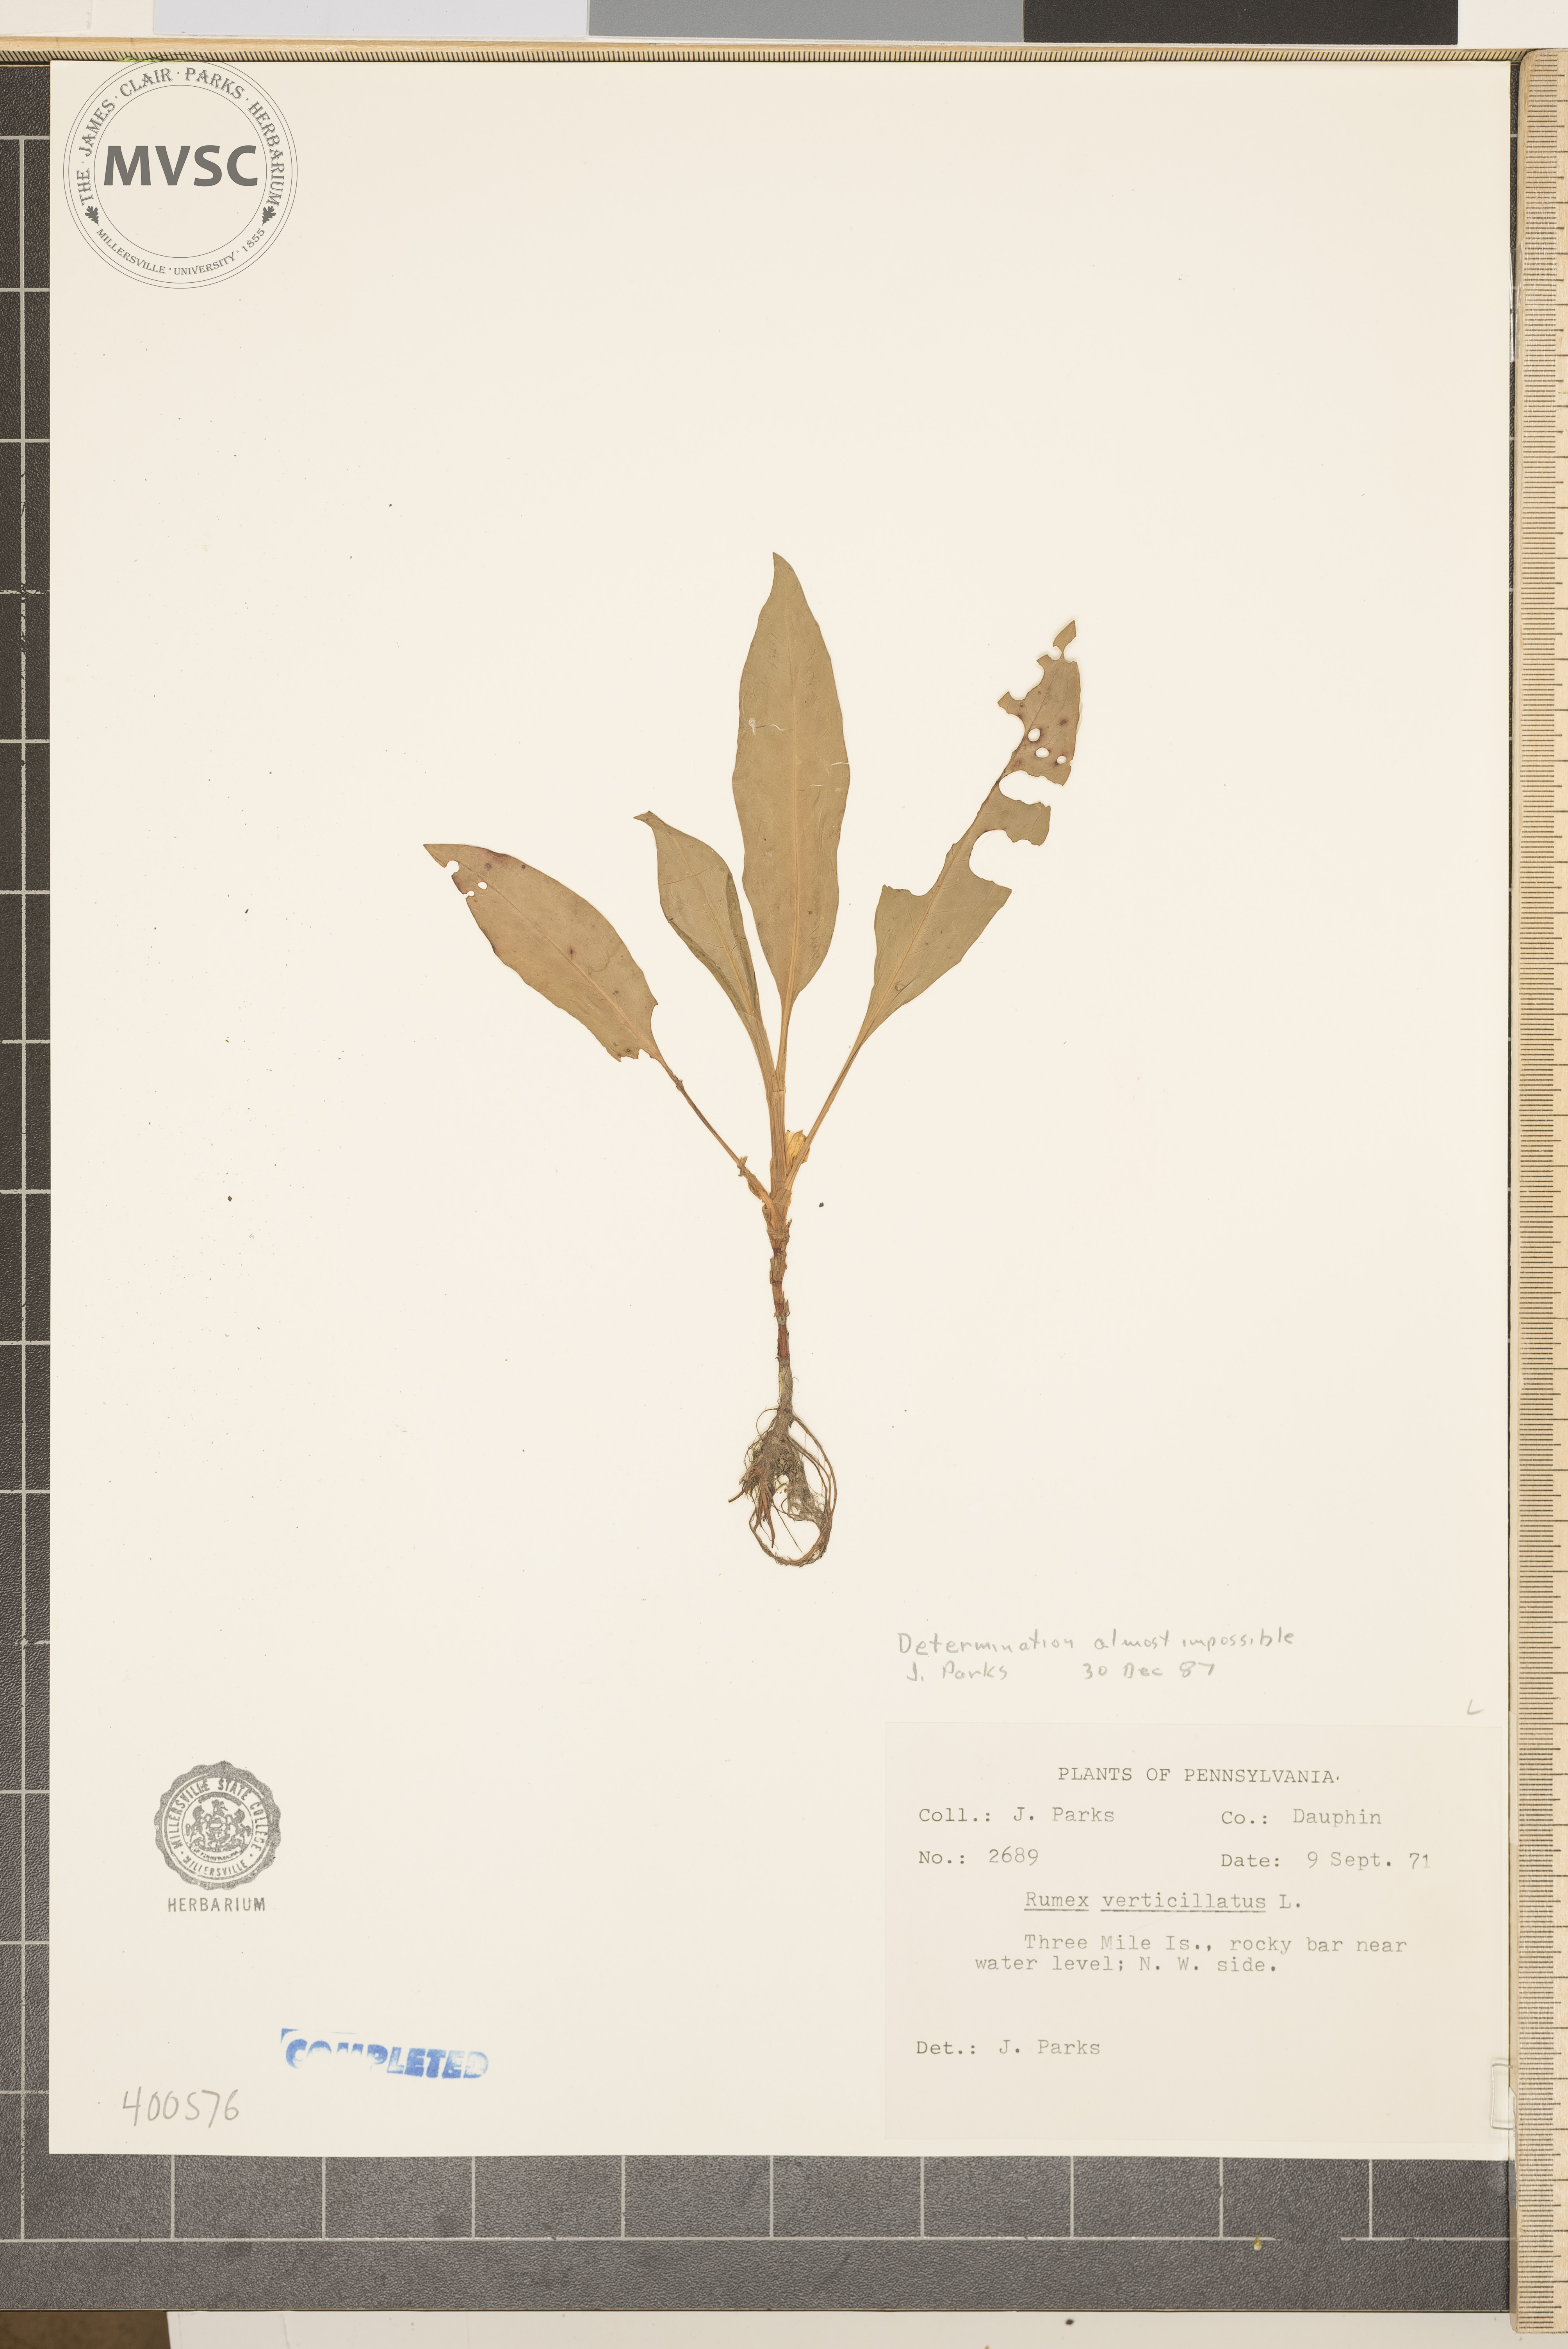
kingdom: Plantae
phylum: Tracheophyta
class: Magnoliopsida
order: Caryophyllales
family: Polygonaceae
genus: Rumex
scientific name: Rumex verticillatus
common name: dock
